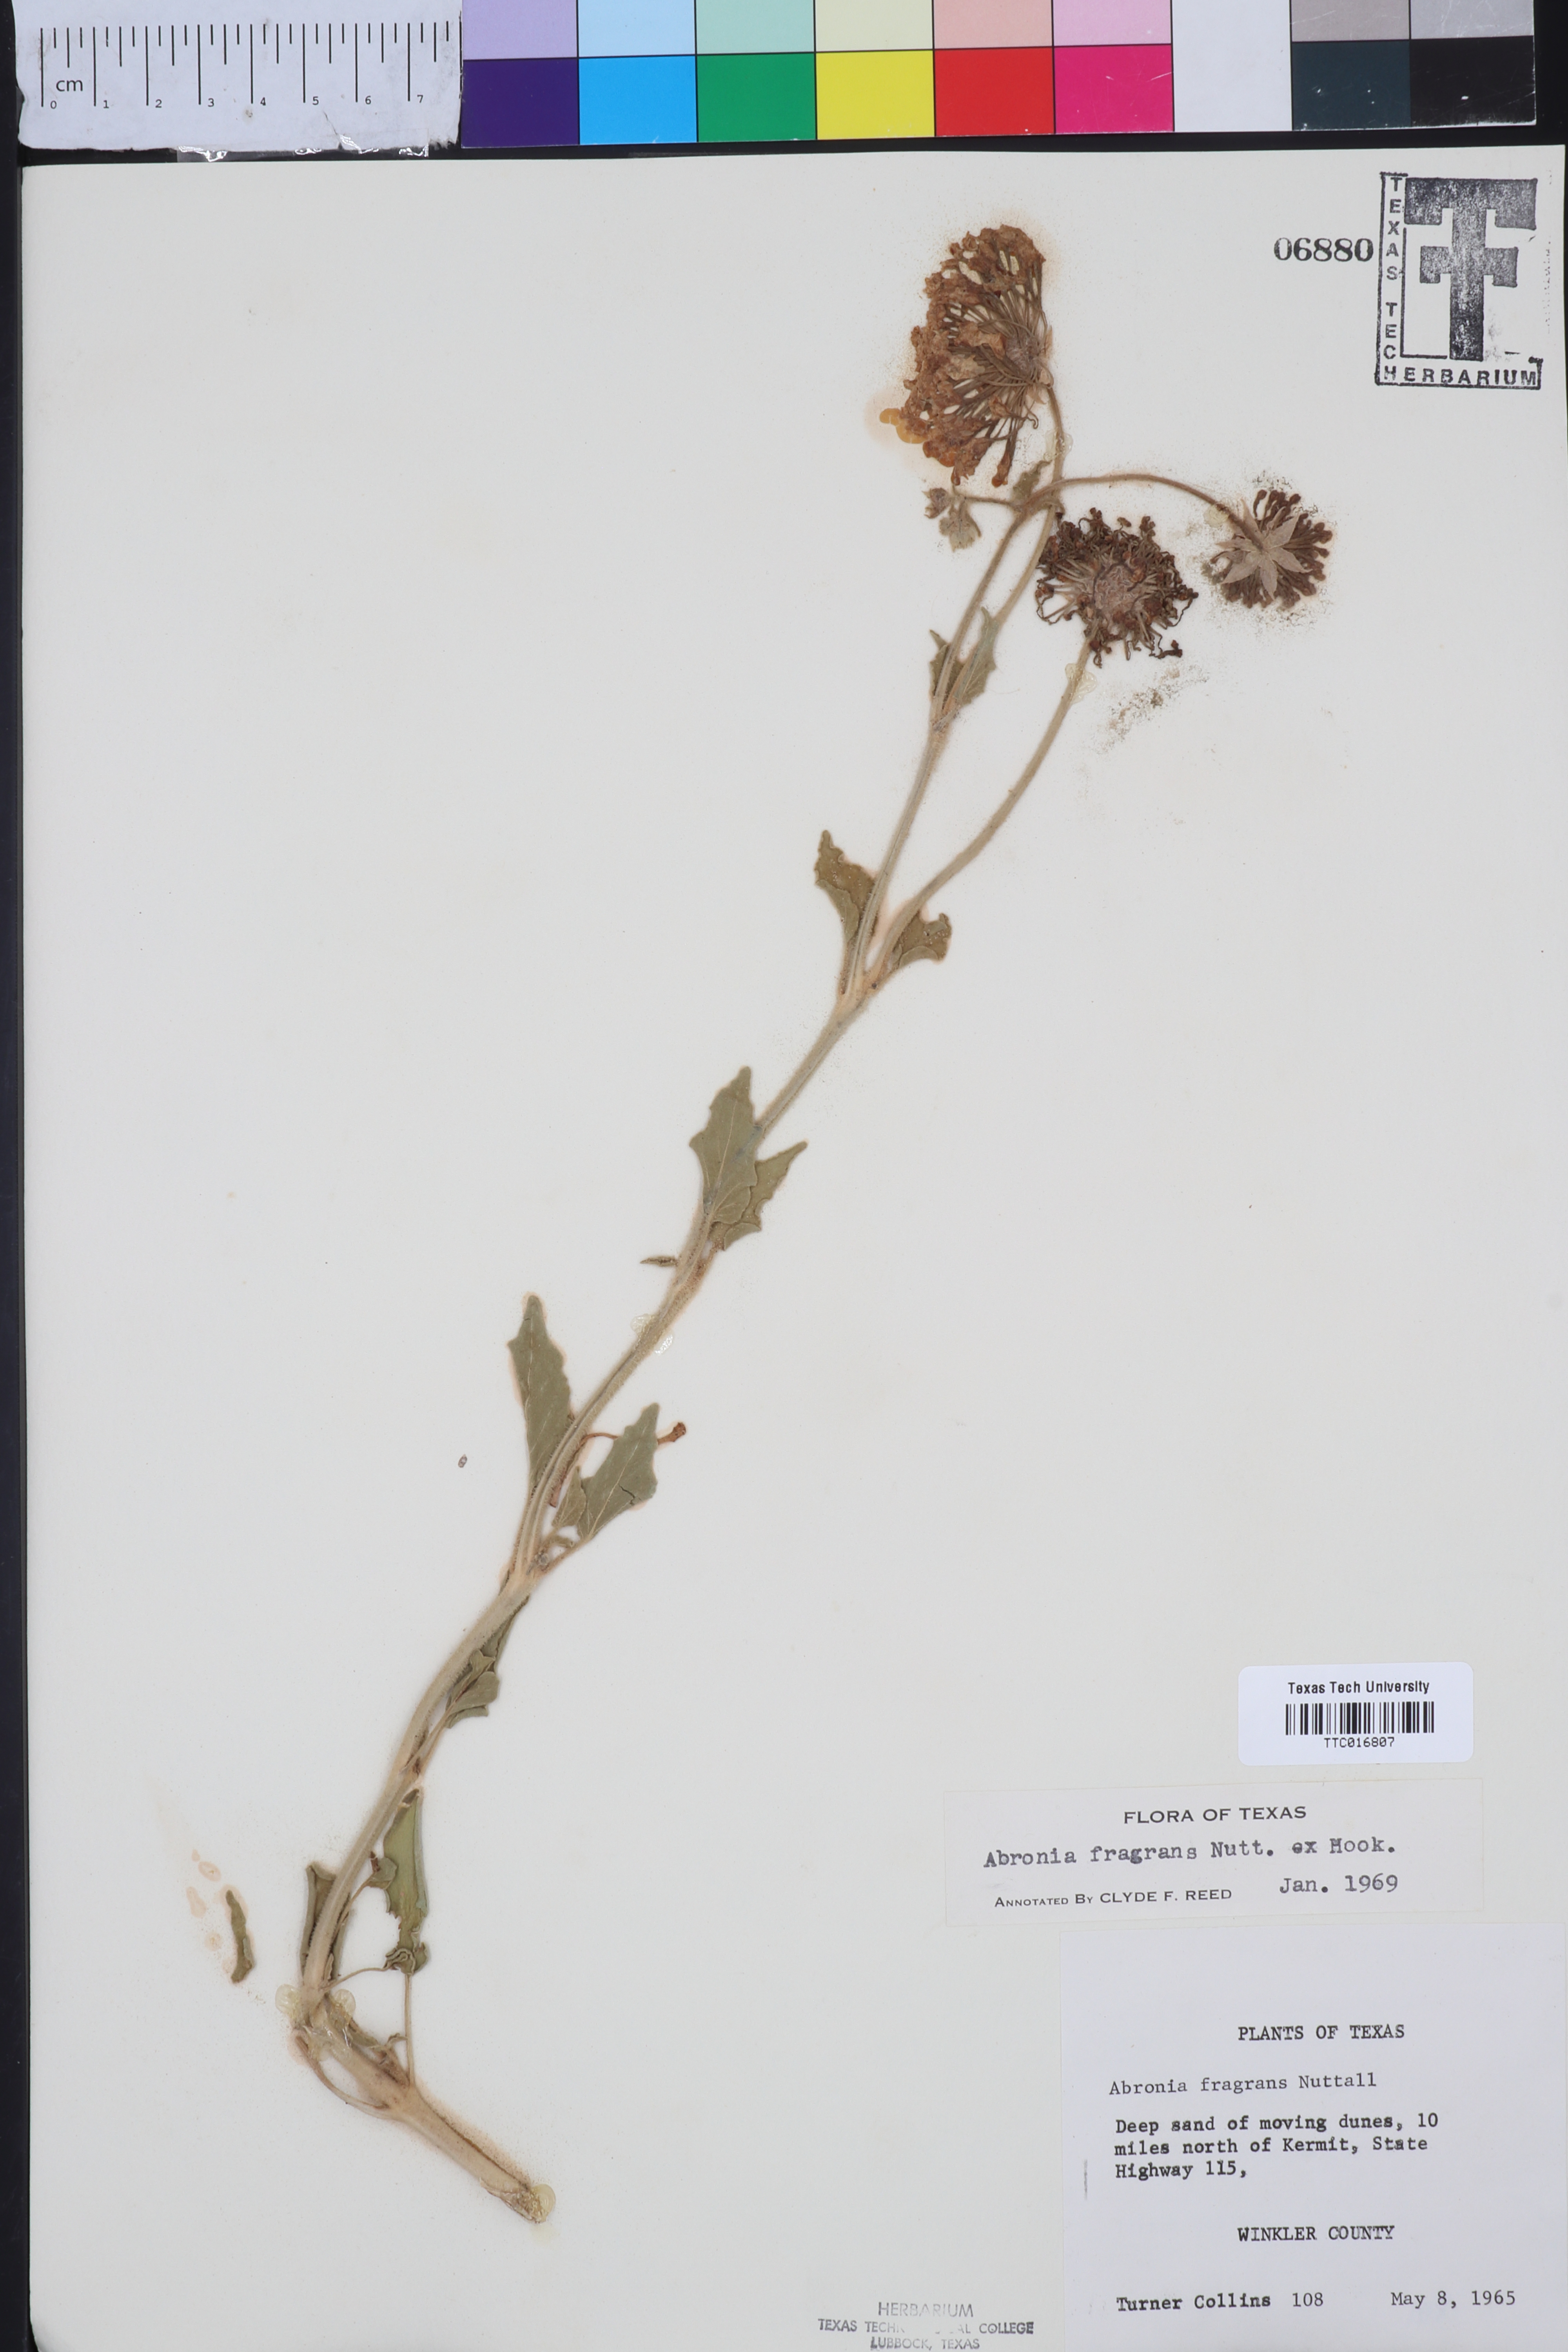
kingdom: Plantae
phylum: Tracheophyta
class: Magnoliopsida
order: Caryophyllales
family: Nyctaginaceae
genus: Abronia
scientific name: Abronia fragrans
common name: Fragrant sand-verbena
